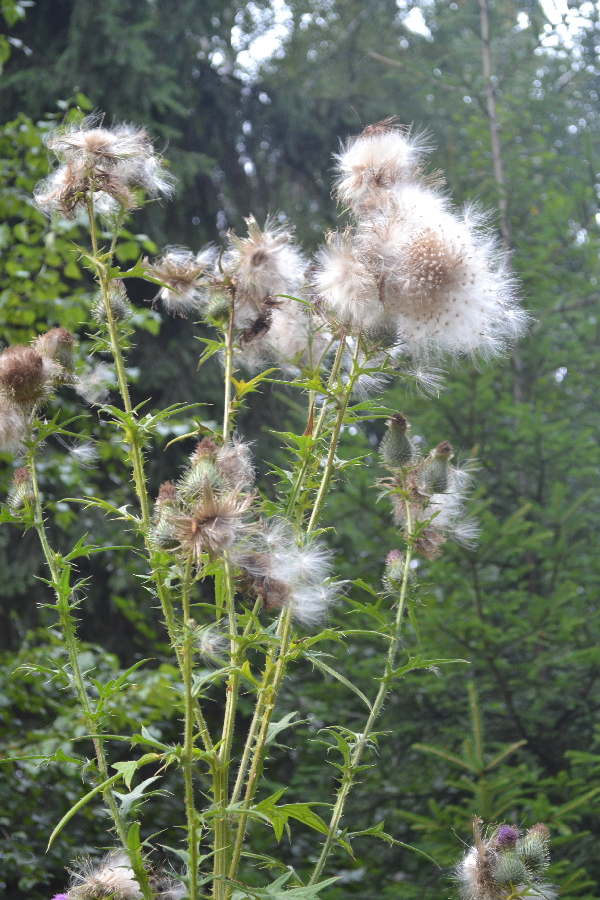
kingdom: Plantae
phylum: Tracheophyta
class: Magnoliopsida
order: Asterales
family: Asteraceae
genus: Cirsium
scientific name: Cirsium vulgare
